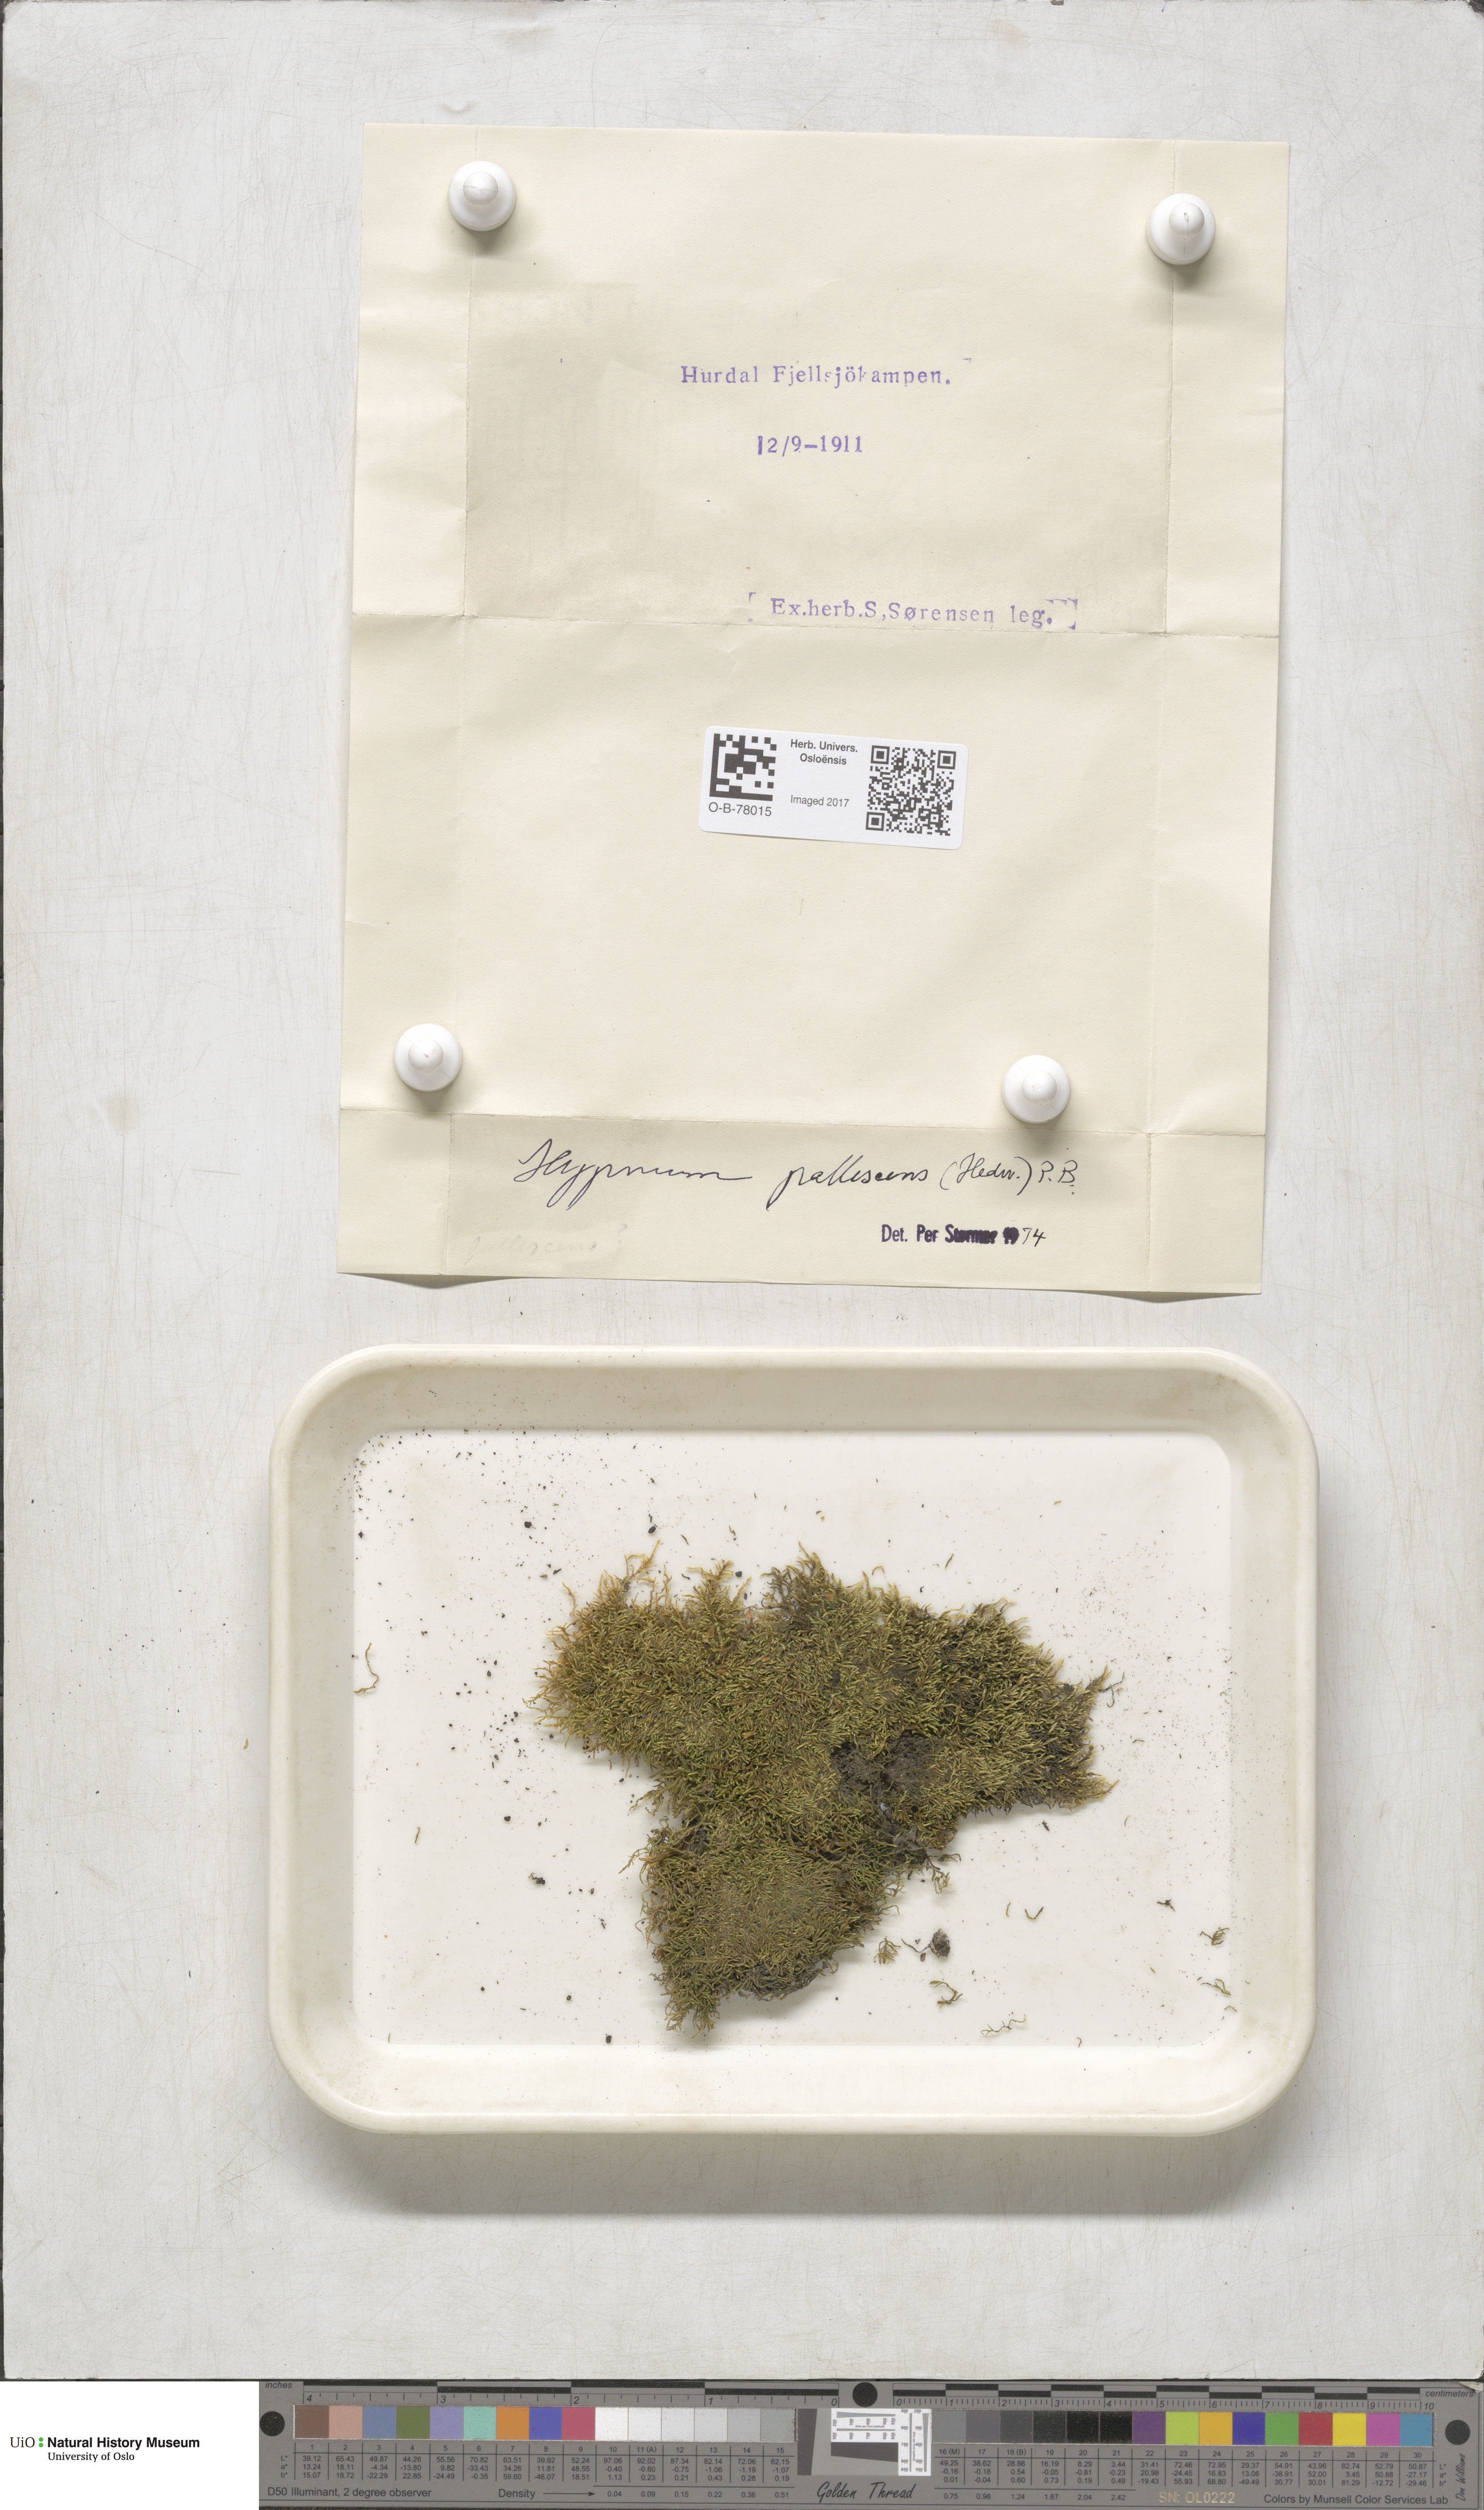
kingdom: Plantae
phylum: Bryophyta
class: Bryopsida
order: Hypnales
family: Jocheniaceae
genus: Jochenia
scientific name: Jochenia pallescens
